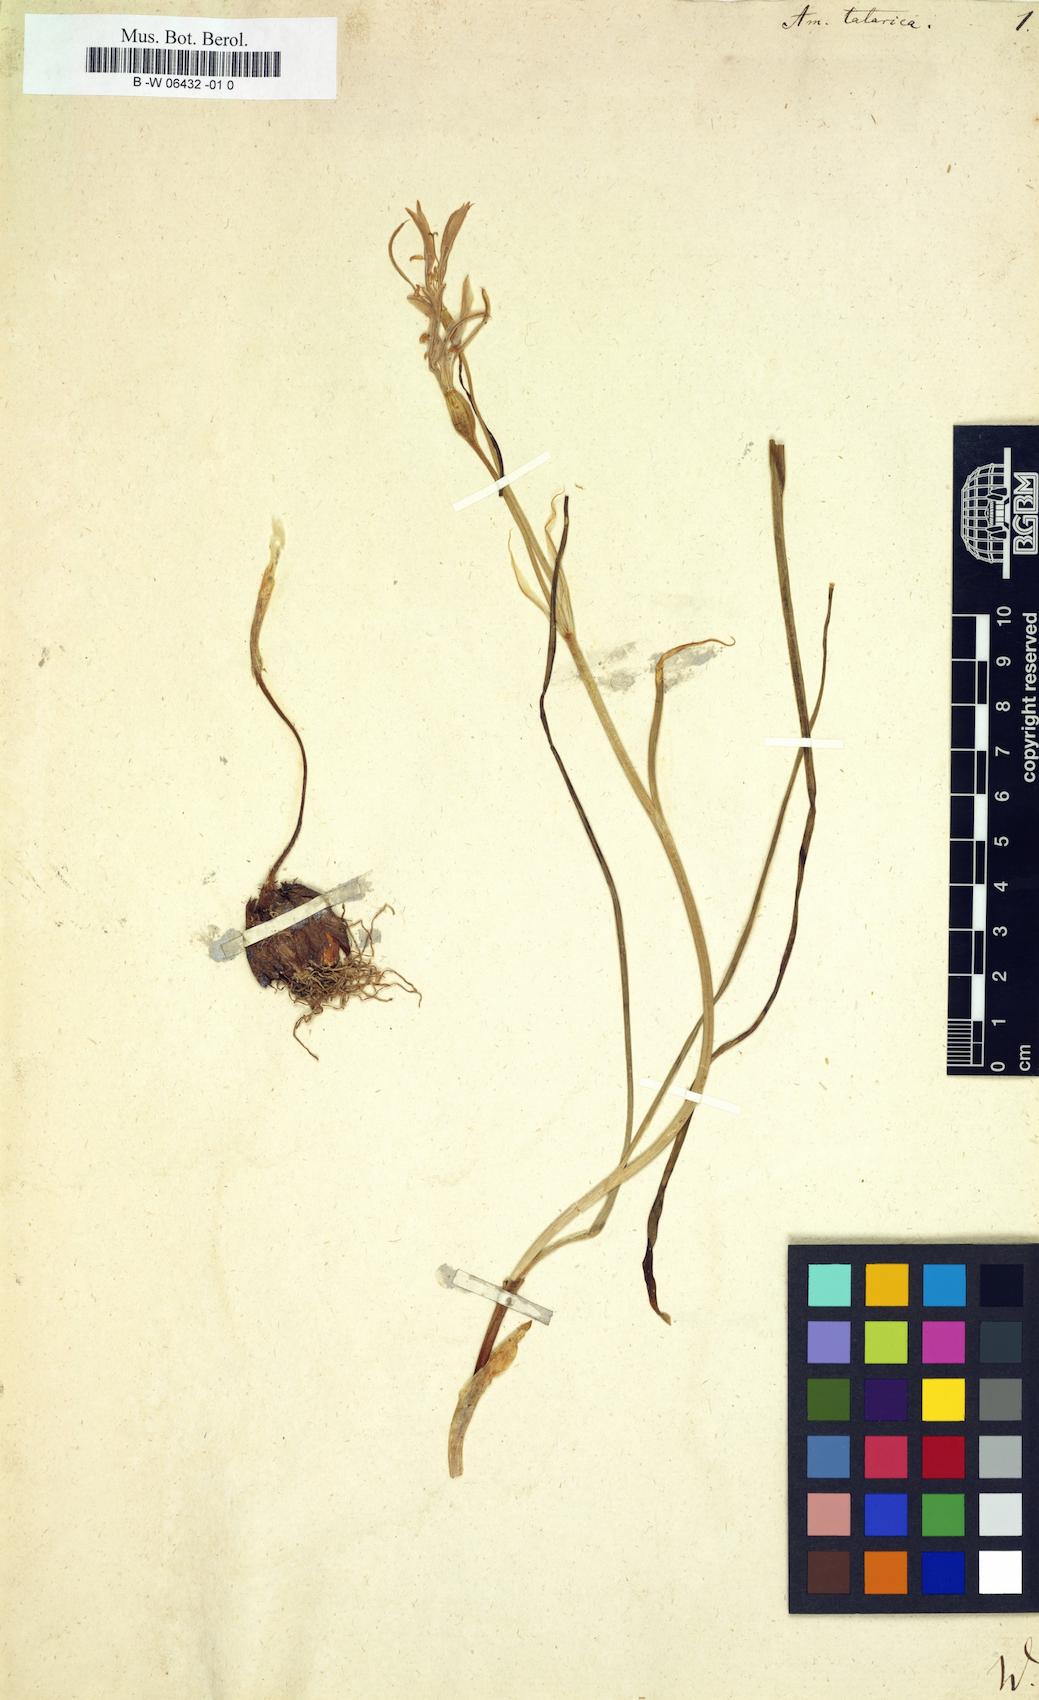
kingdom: Plantae
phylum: Tracheophyta
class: Liliopsida
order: Asparagales
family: Ixioliriaceae
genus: Ixiolirion
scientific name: Ixiolirion tataricum
